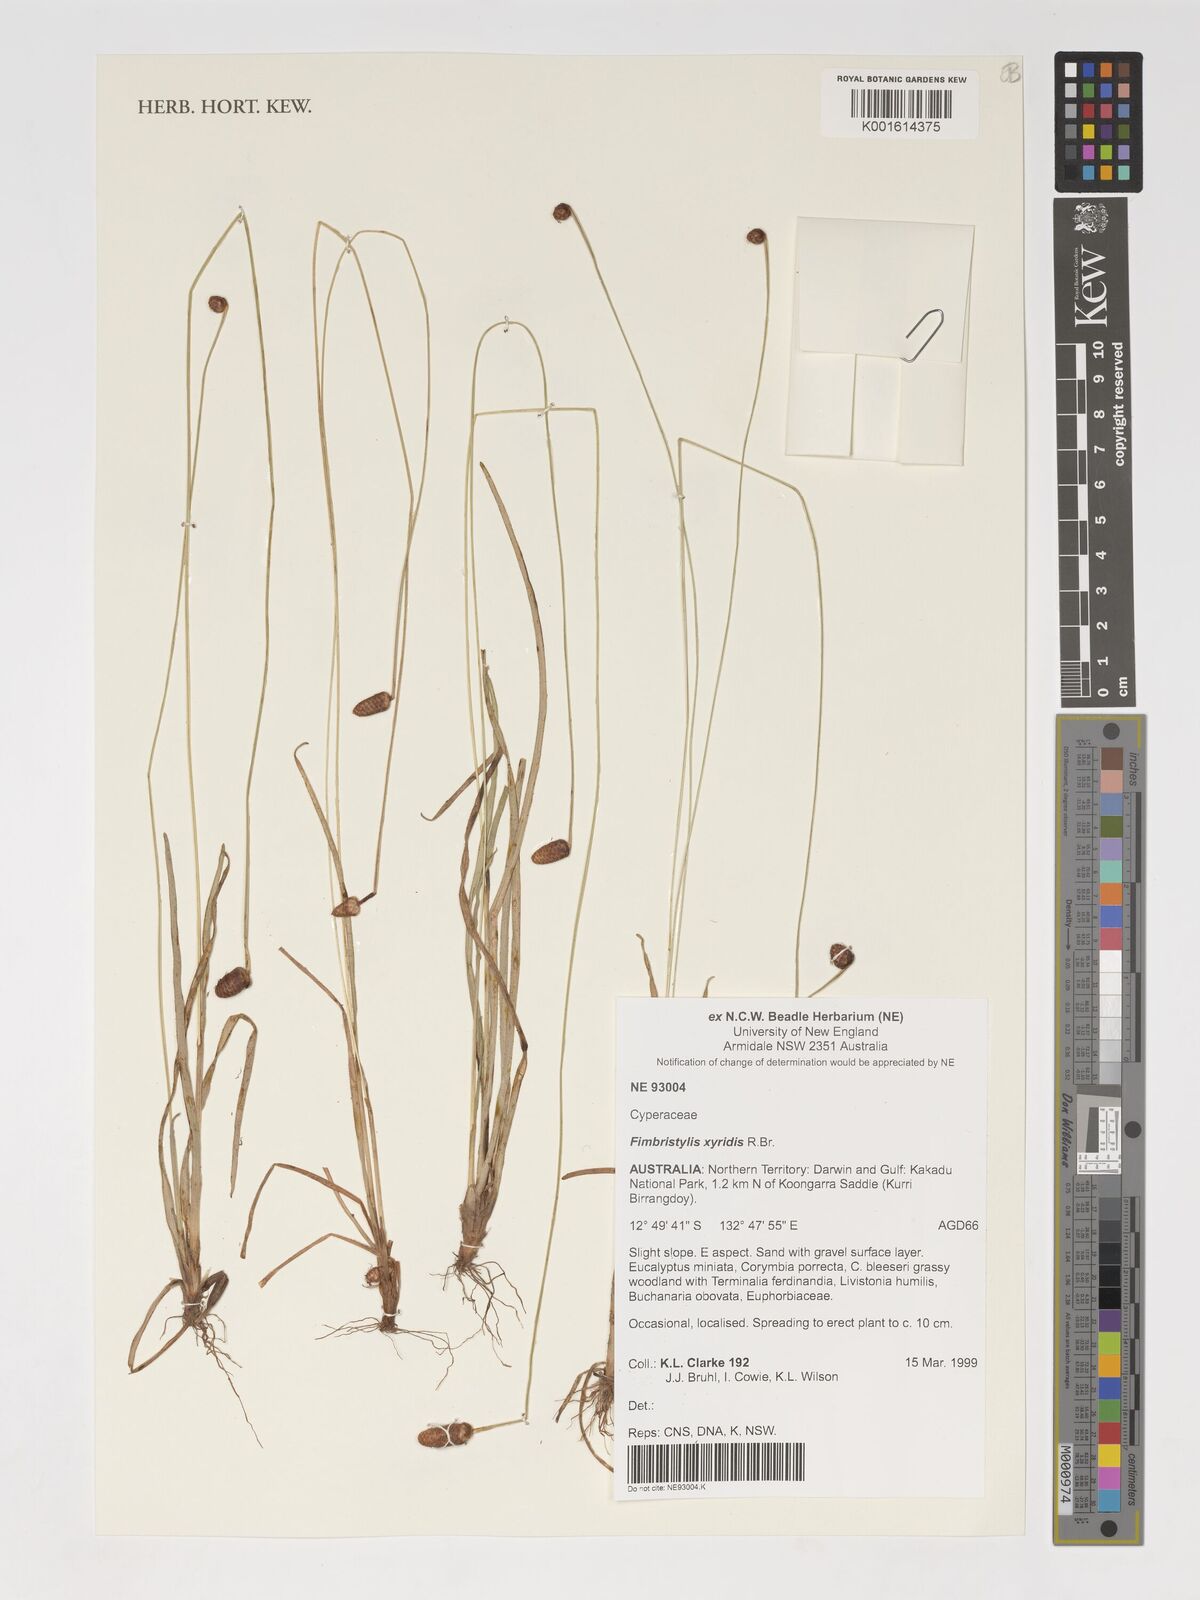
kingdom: Plantae
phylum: Tracheophyta
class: Liliopsida
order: Poales
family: Cyperaceae
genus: Fimbristylis
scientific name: Fimbristylis xyridis
